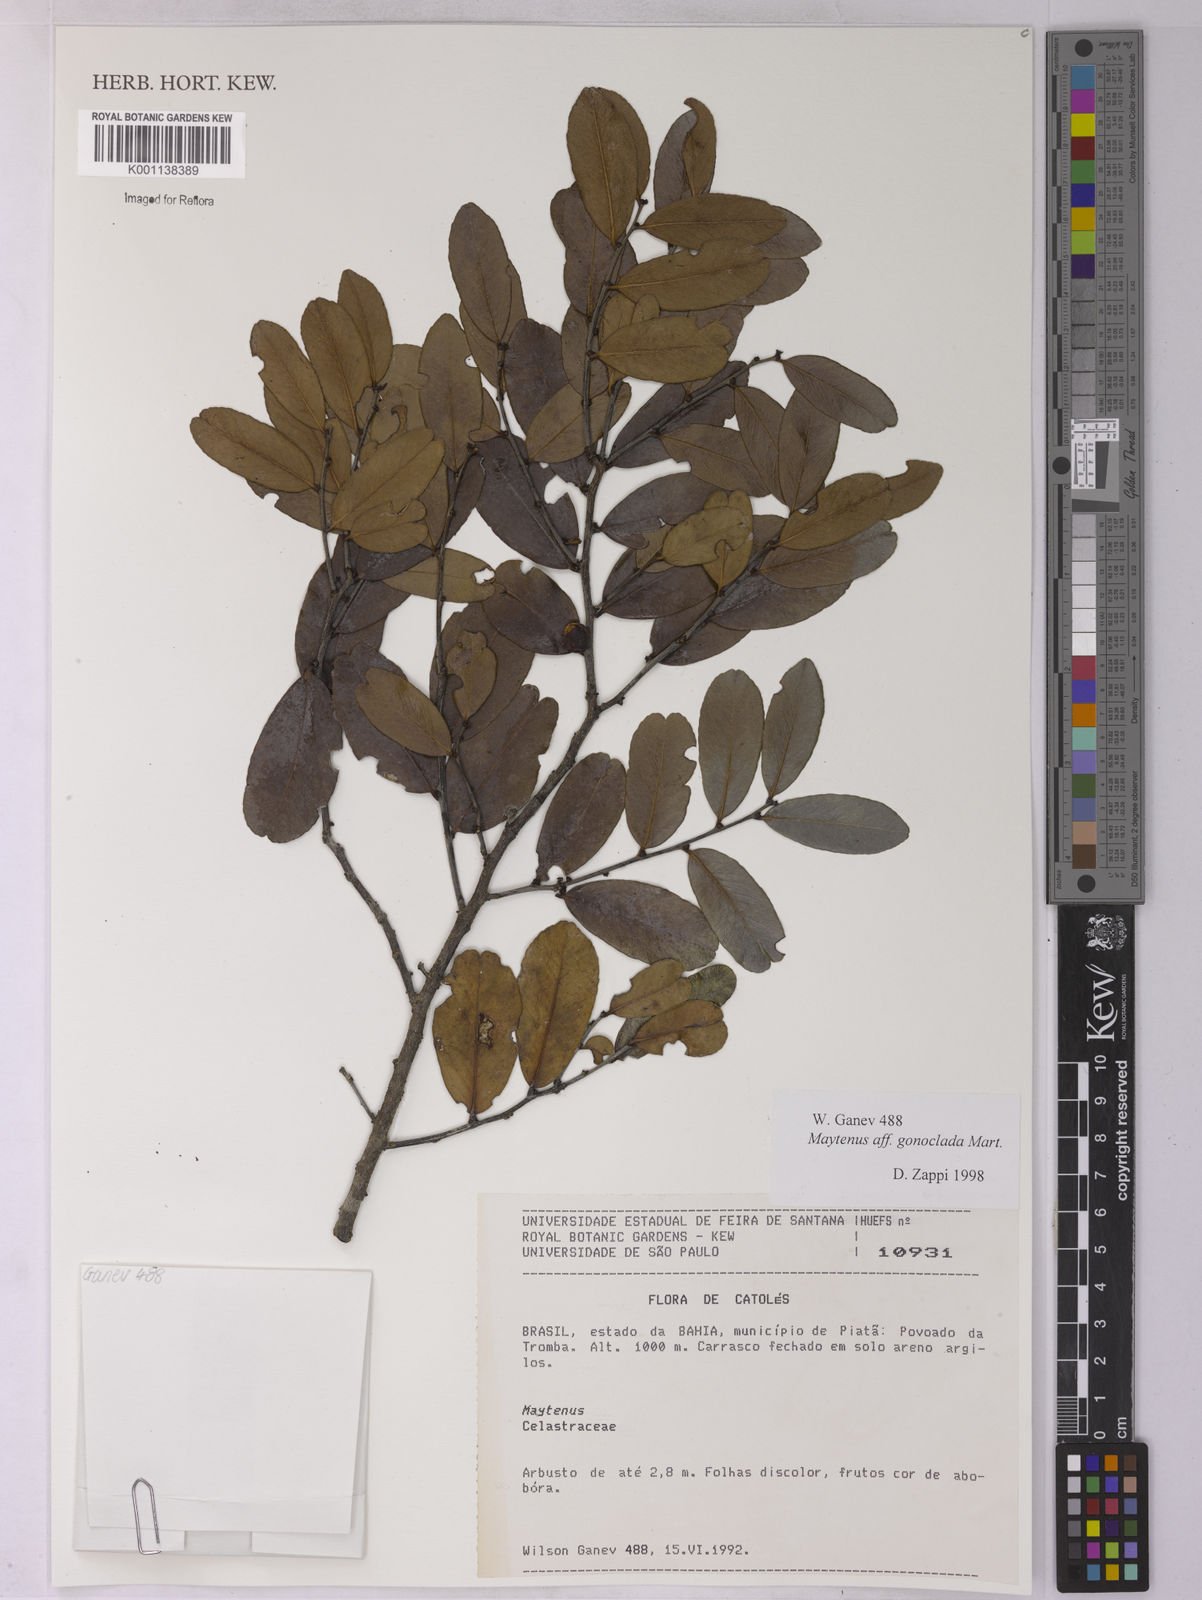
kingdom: Plantae
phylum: Tracheophyta
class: Magnoliopsida
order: Celastrales
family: Celastraceae
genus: Monteverdia
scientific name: Monteverdia gonoclada
